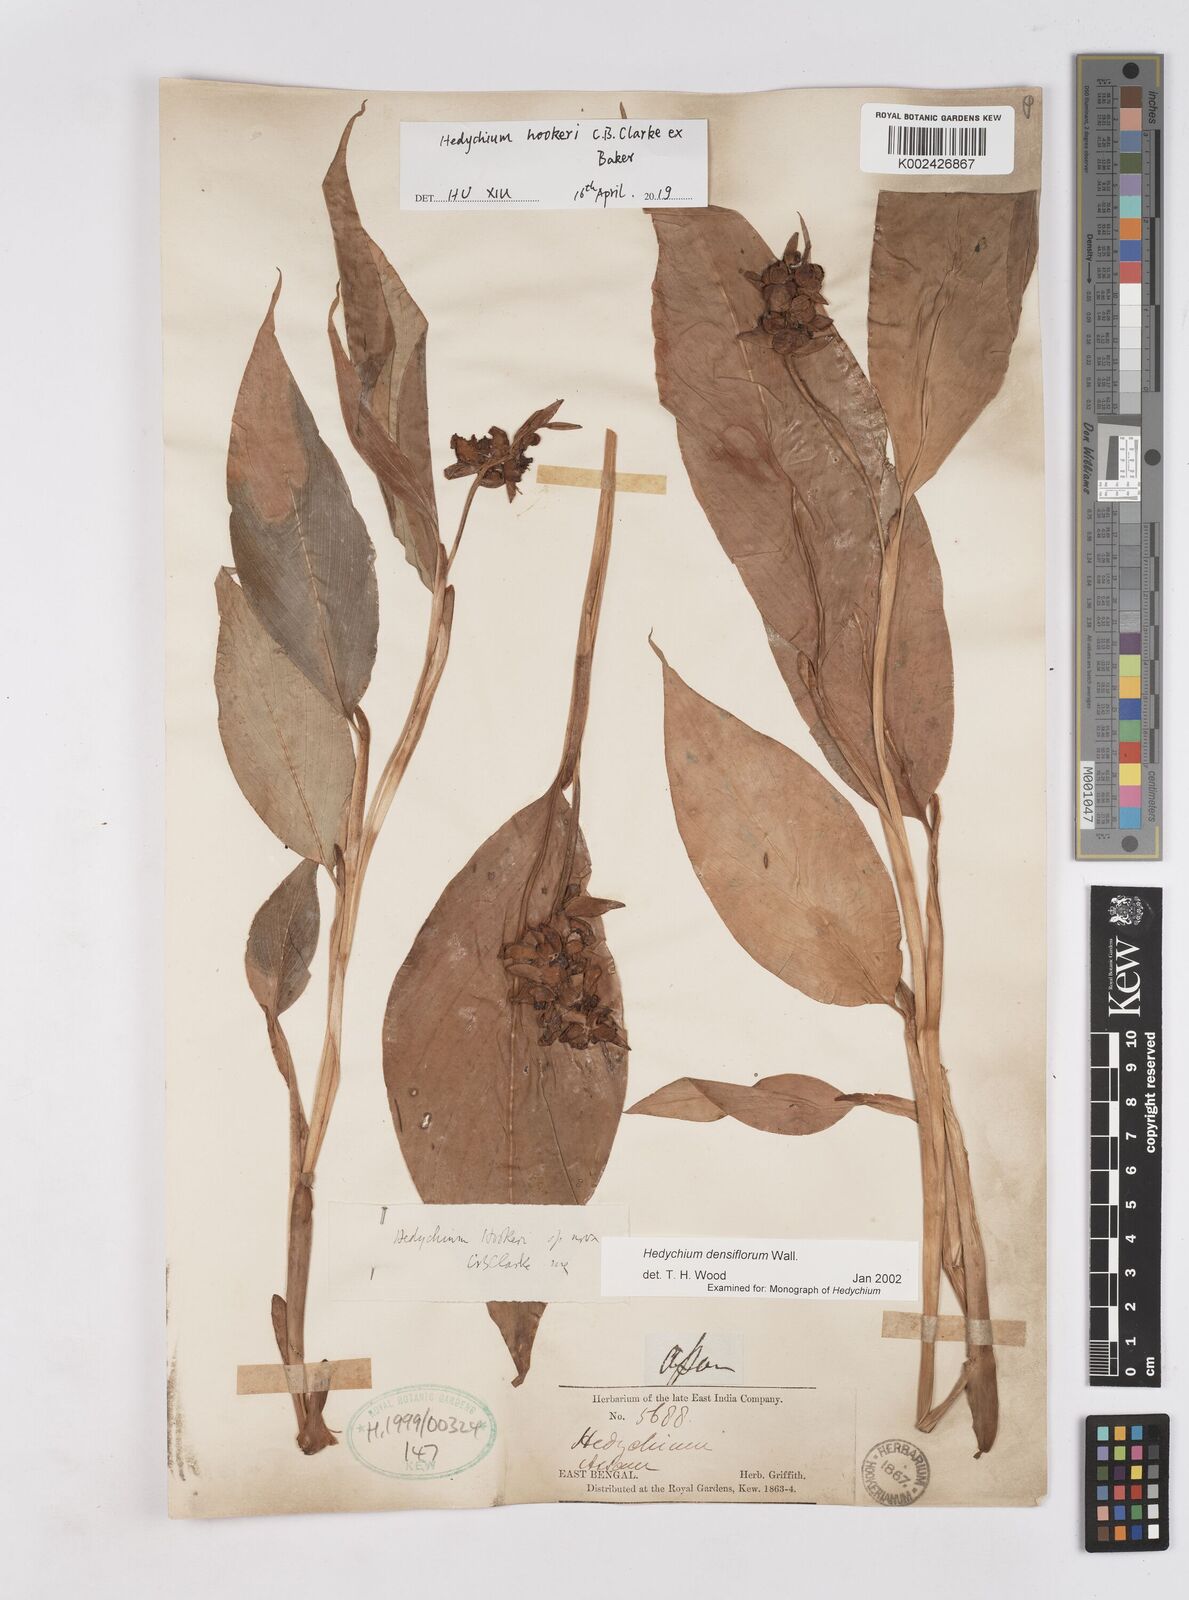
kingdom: Plantae
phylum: Tracheophyta
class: Liliopsida
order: Zingiberales
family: Zingiberaceae
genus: Hedychium
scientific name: Hedychium hookeri
